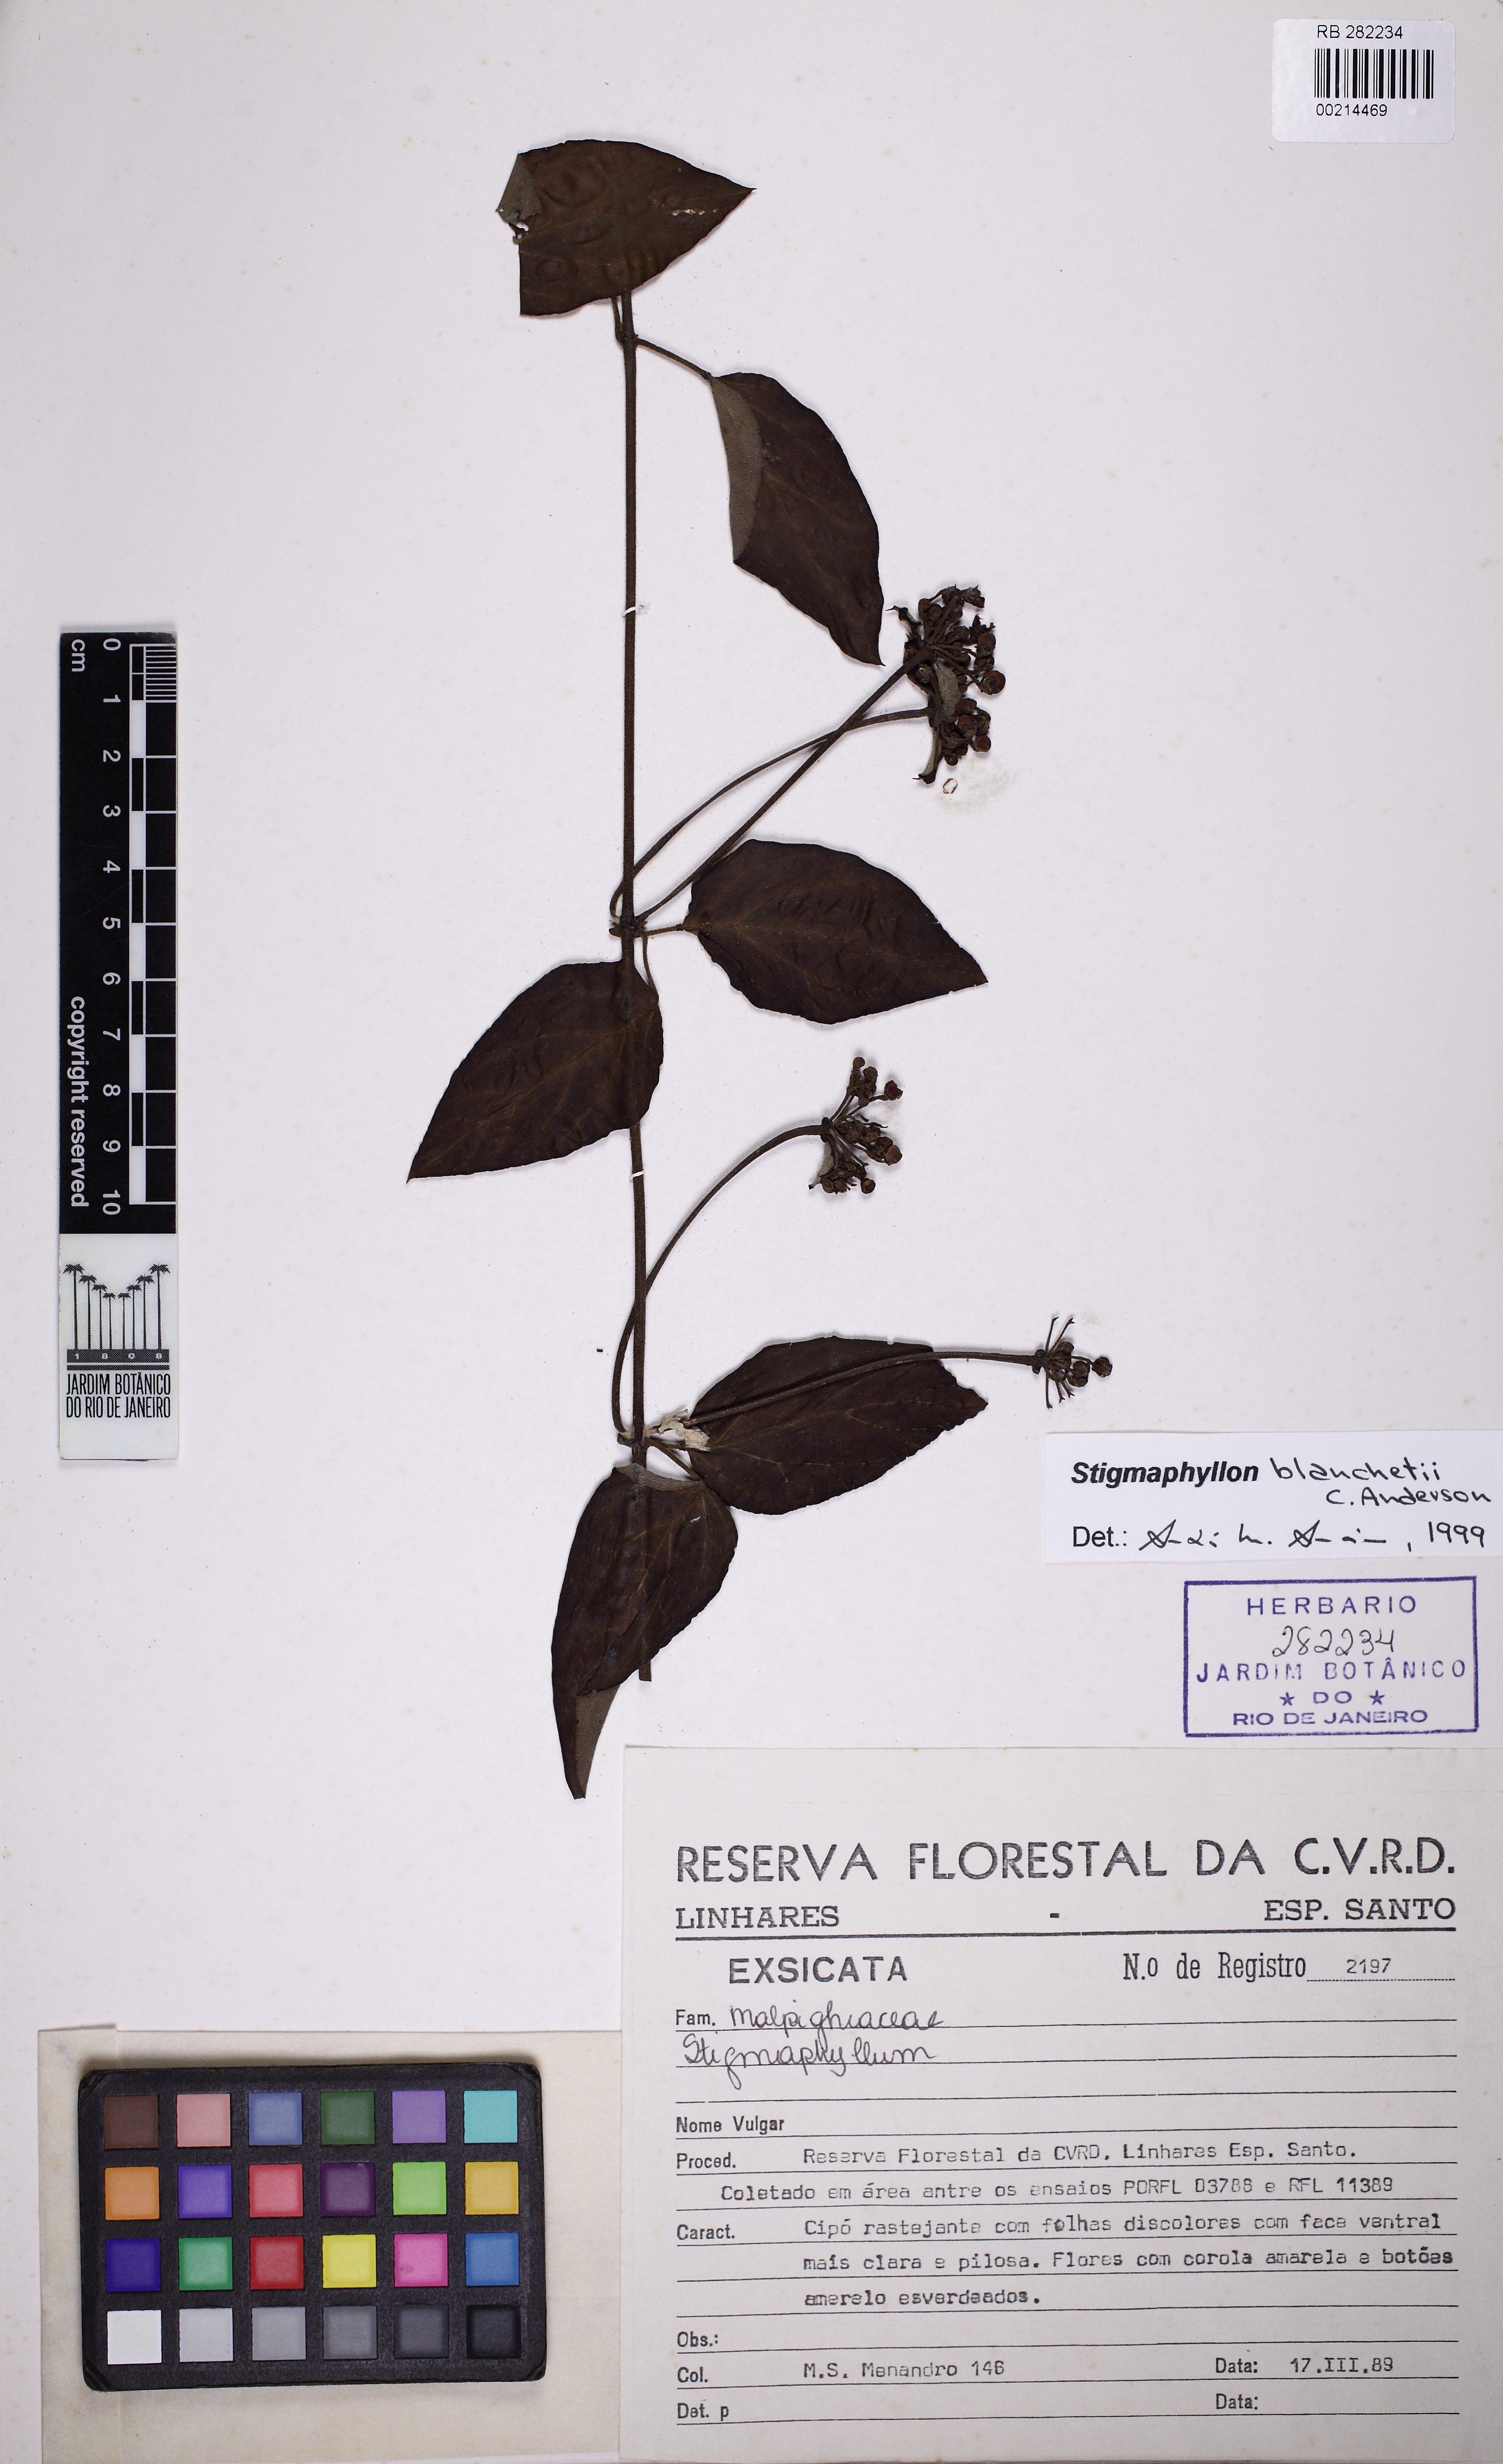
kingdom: Plantae
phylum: Tracheophyta
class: Magnoliopsida
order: Malpighiales
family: Malpighiaceae
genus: Stigmaphyllon
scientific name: Stigmaphyllon blanchetii
